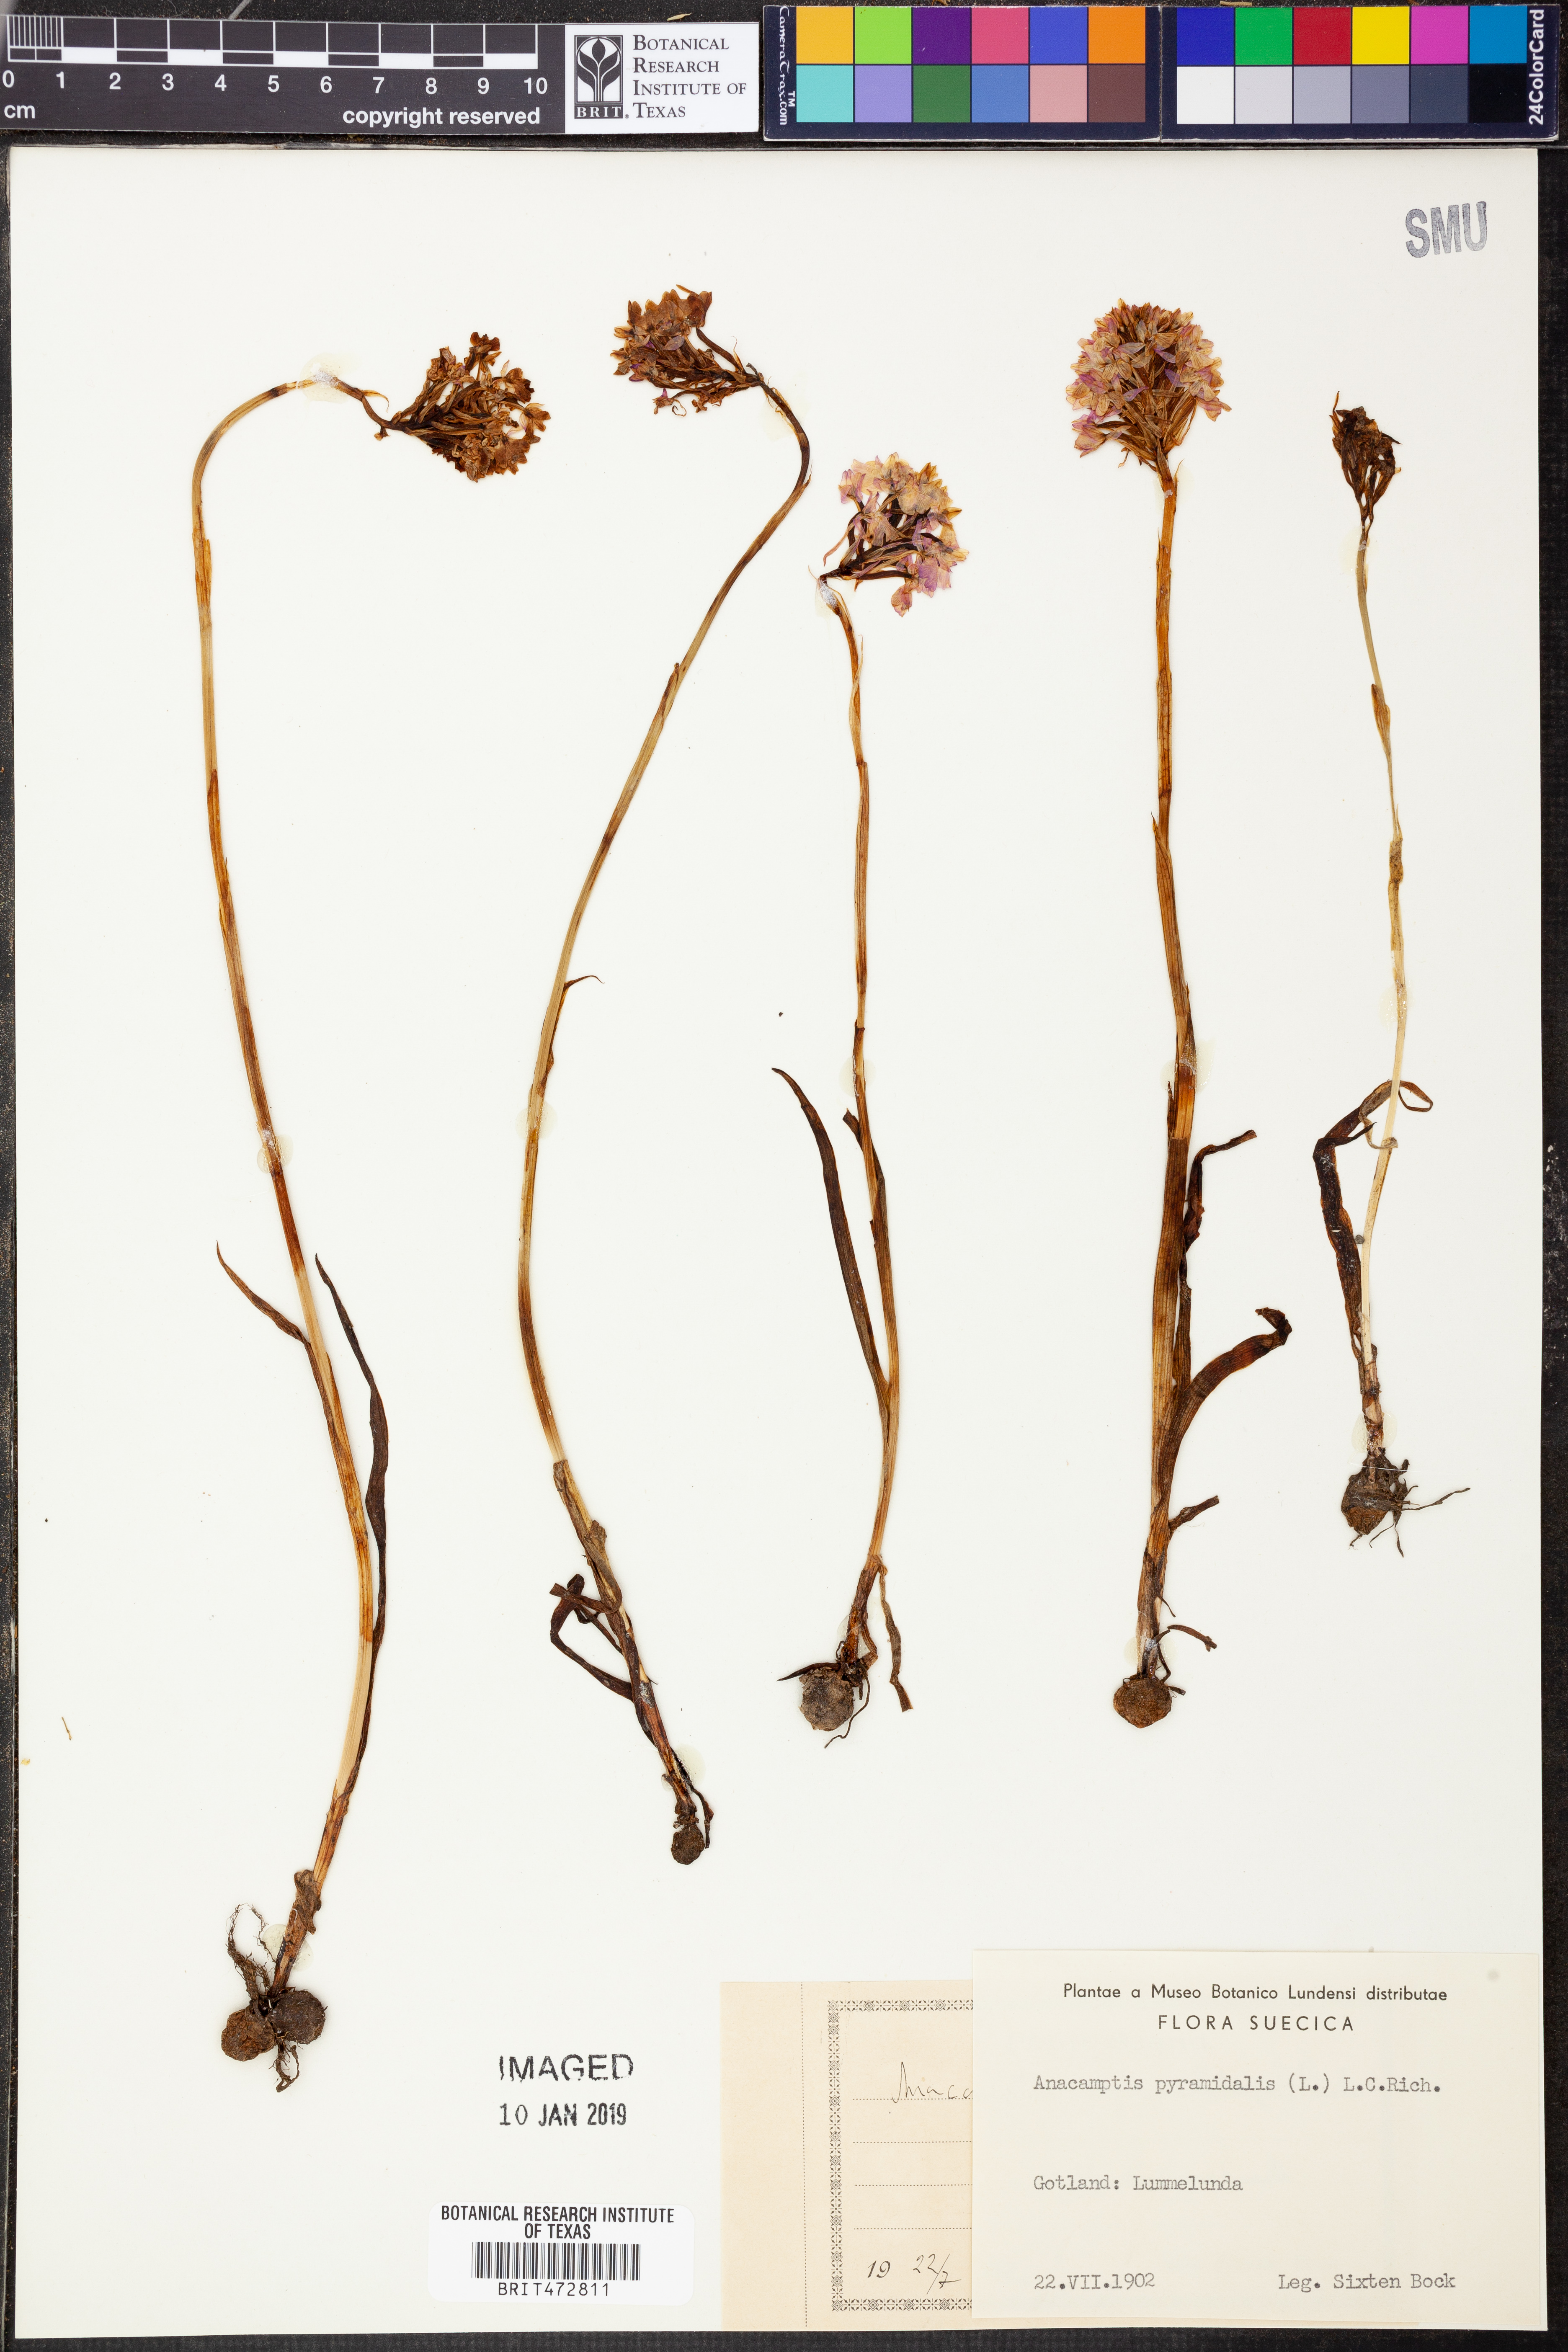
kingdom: Plantae
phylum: Tracheophyta
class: Liliopsida
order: Asparagales
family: Orchidaceae
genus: Anacamptis
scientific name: Anacamptis pyramidalis
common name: Pyramidal orchid
